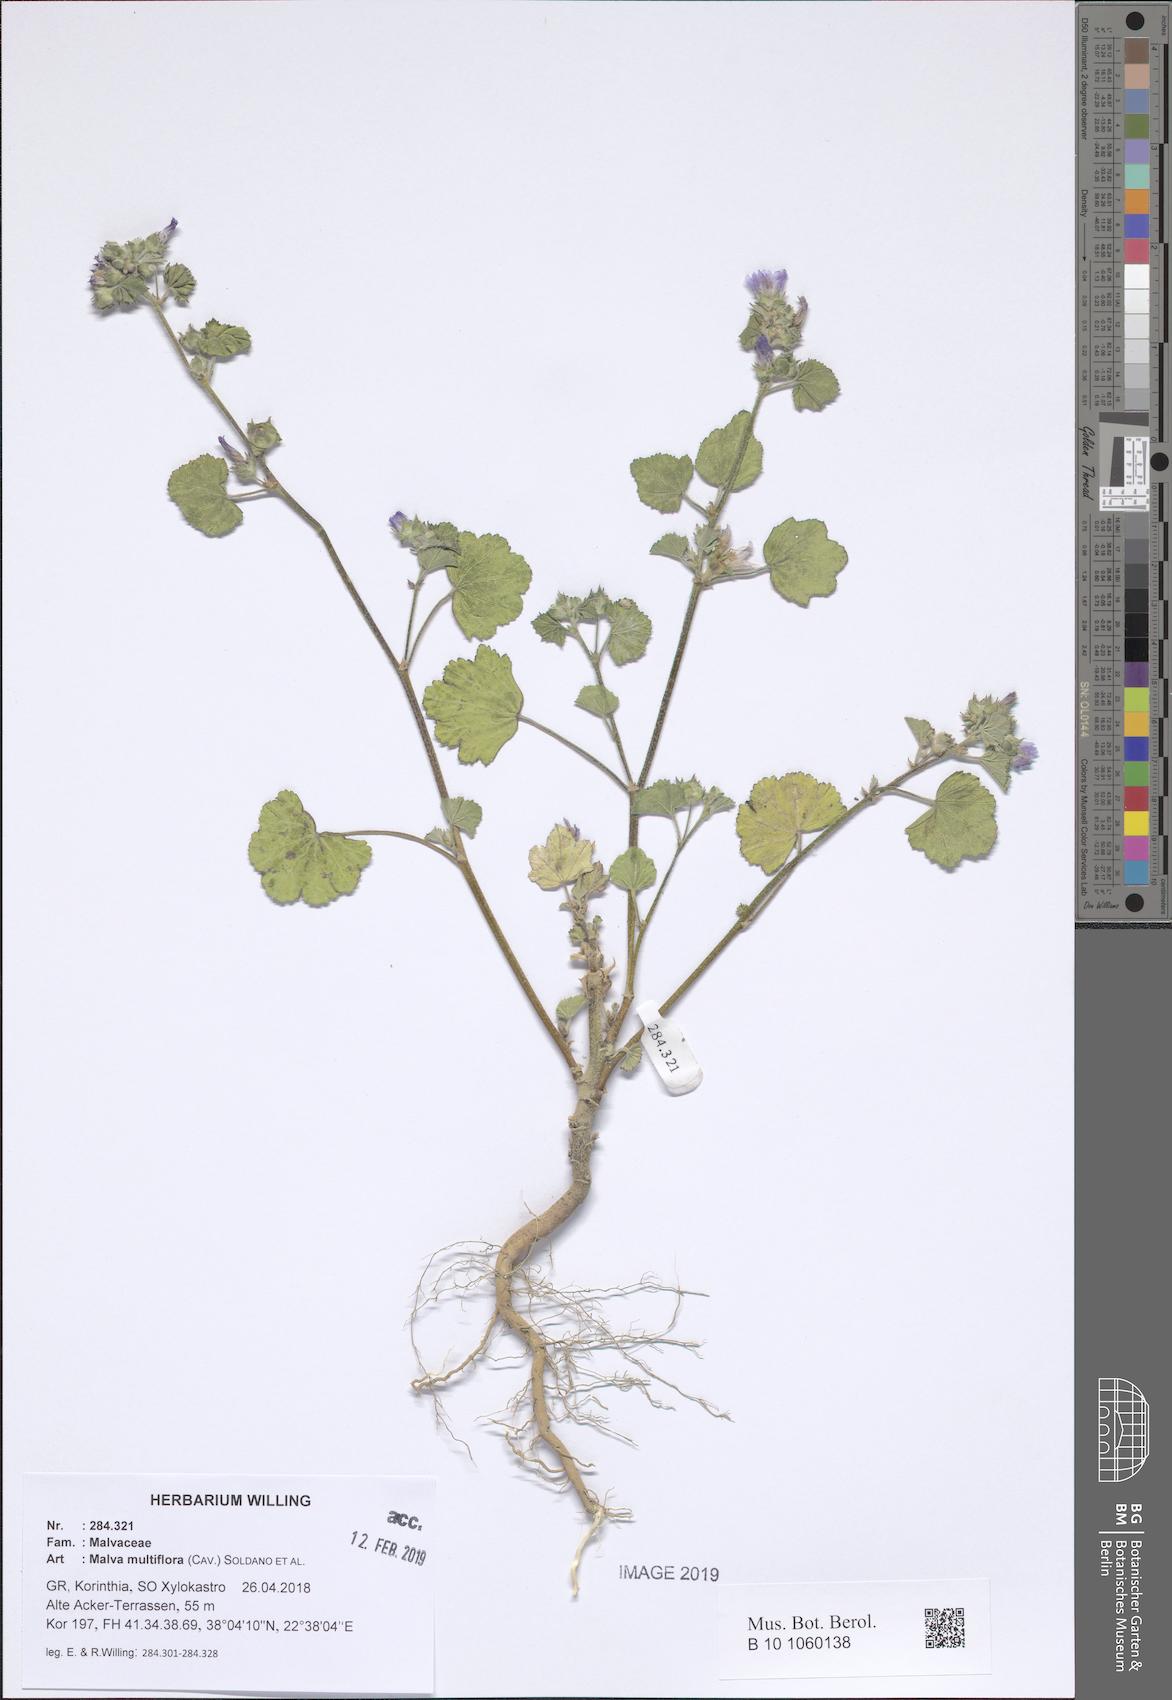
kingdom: Plantae
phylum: Tracheophyta
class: Magnoliopsida
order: Malvales
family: Malvaceae
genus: Malva
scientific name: Malva multiflora
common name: Cheeseweed
